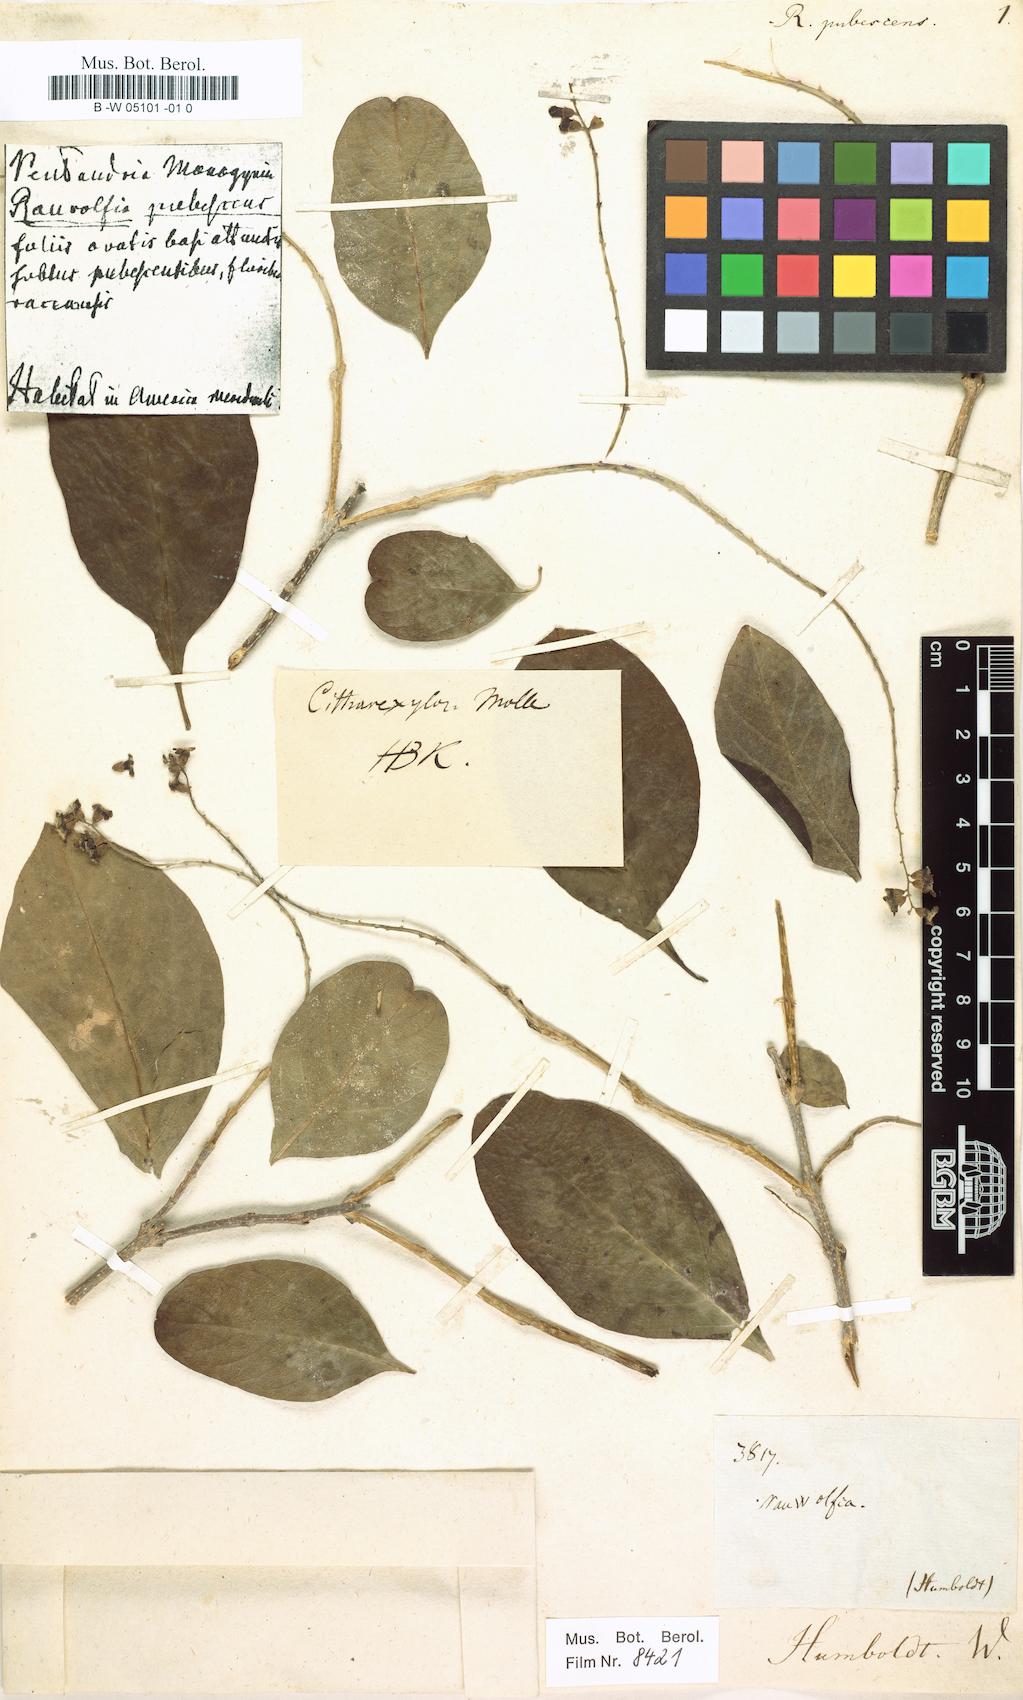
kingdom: Plantae
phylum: Tracheophyta
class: Magnoliopsida
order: Lamiales
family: Verbenaceae
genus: Citharexylum
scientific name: Citharexylum quitense
